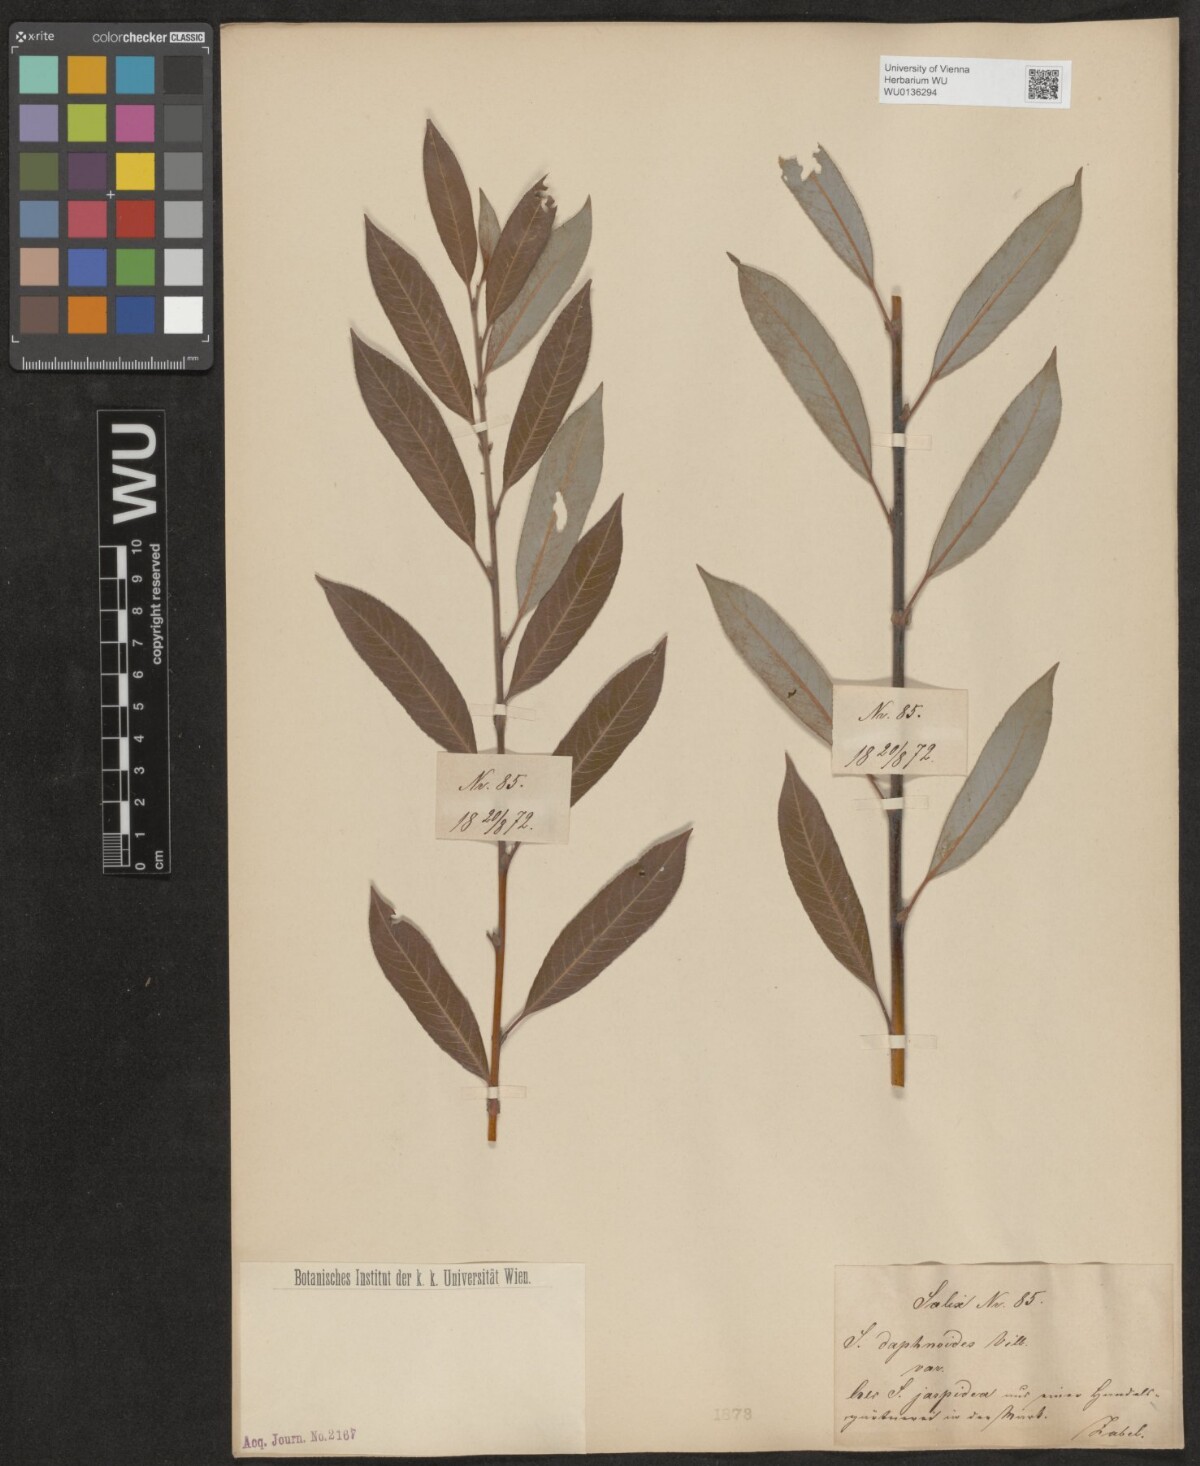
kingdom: Plantae
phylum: Tracheophyta
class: Magnoliopsida
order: Malpighiales
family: Salicaceae
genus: Salix
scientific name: Salix daphnoides
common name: European violet-willow
